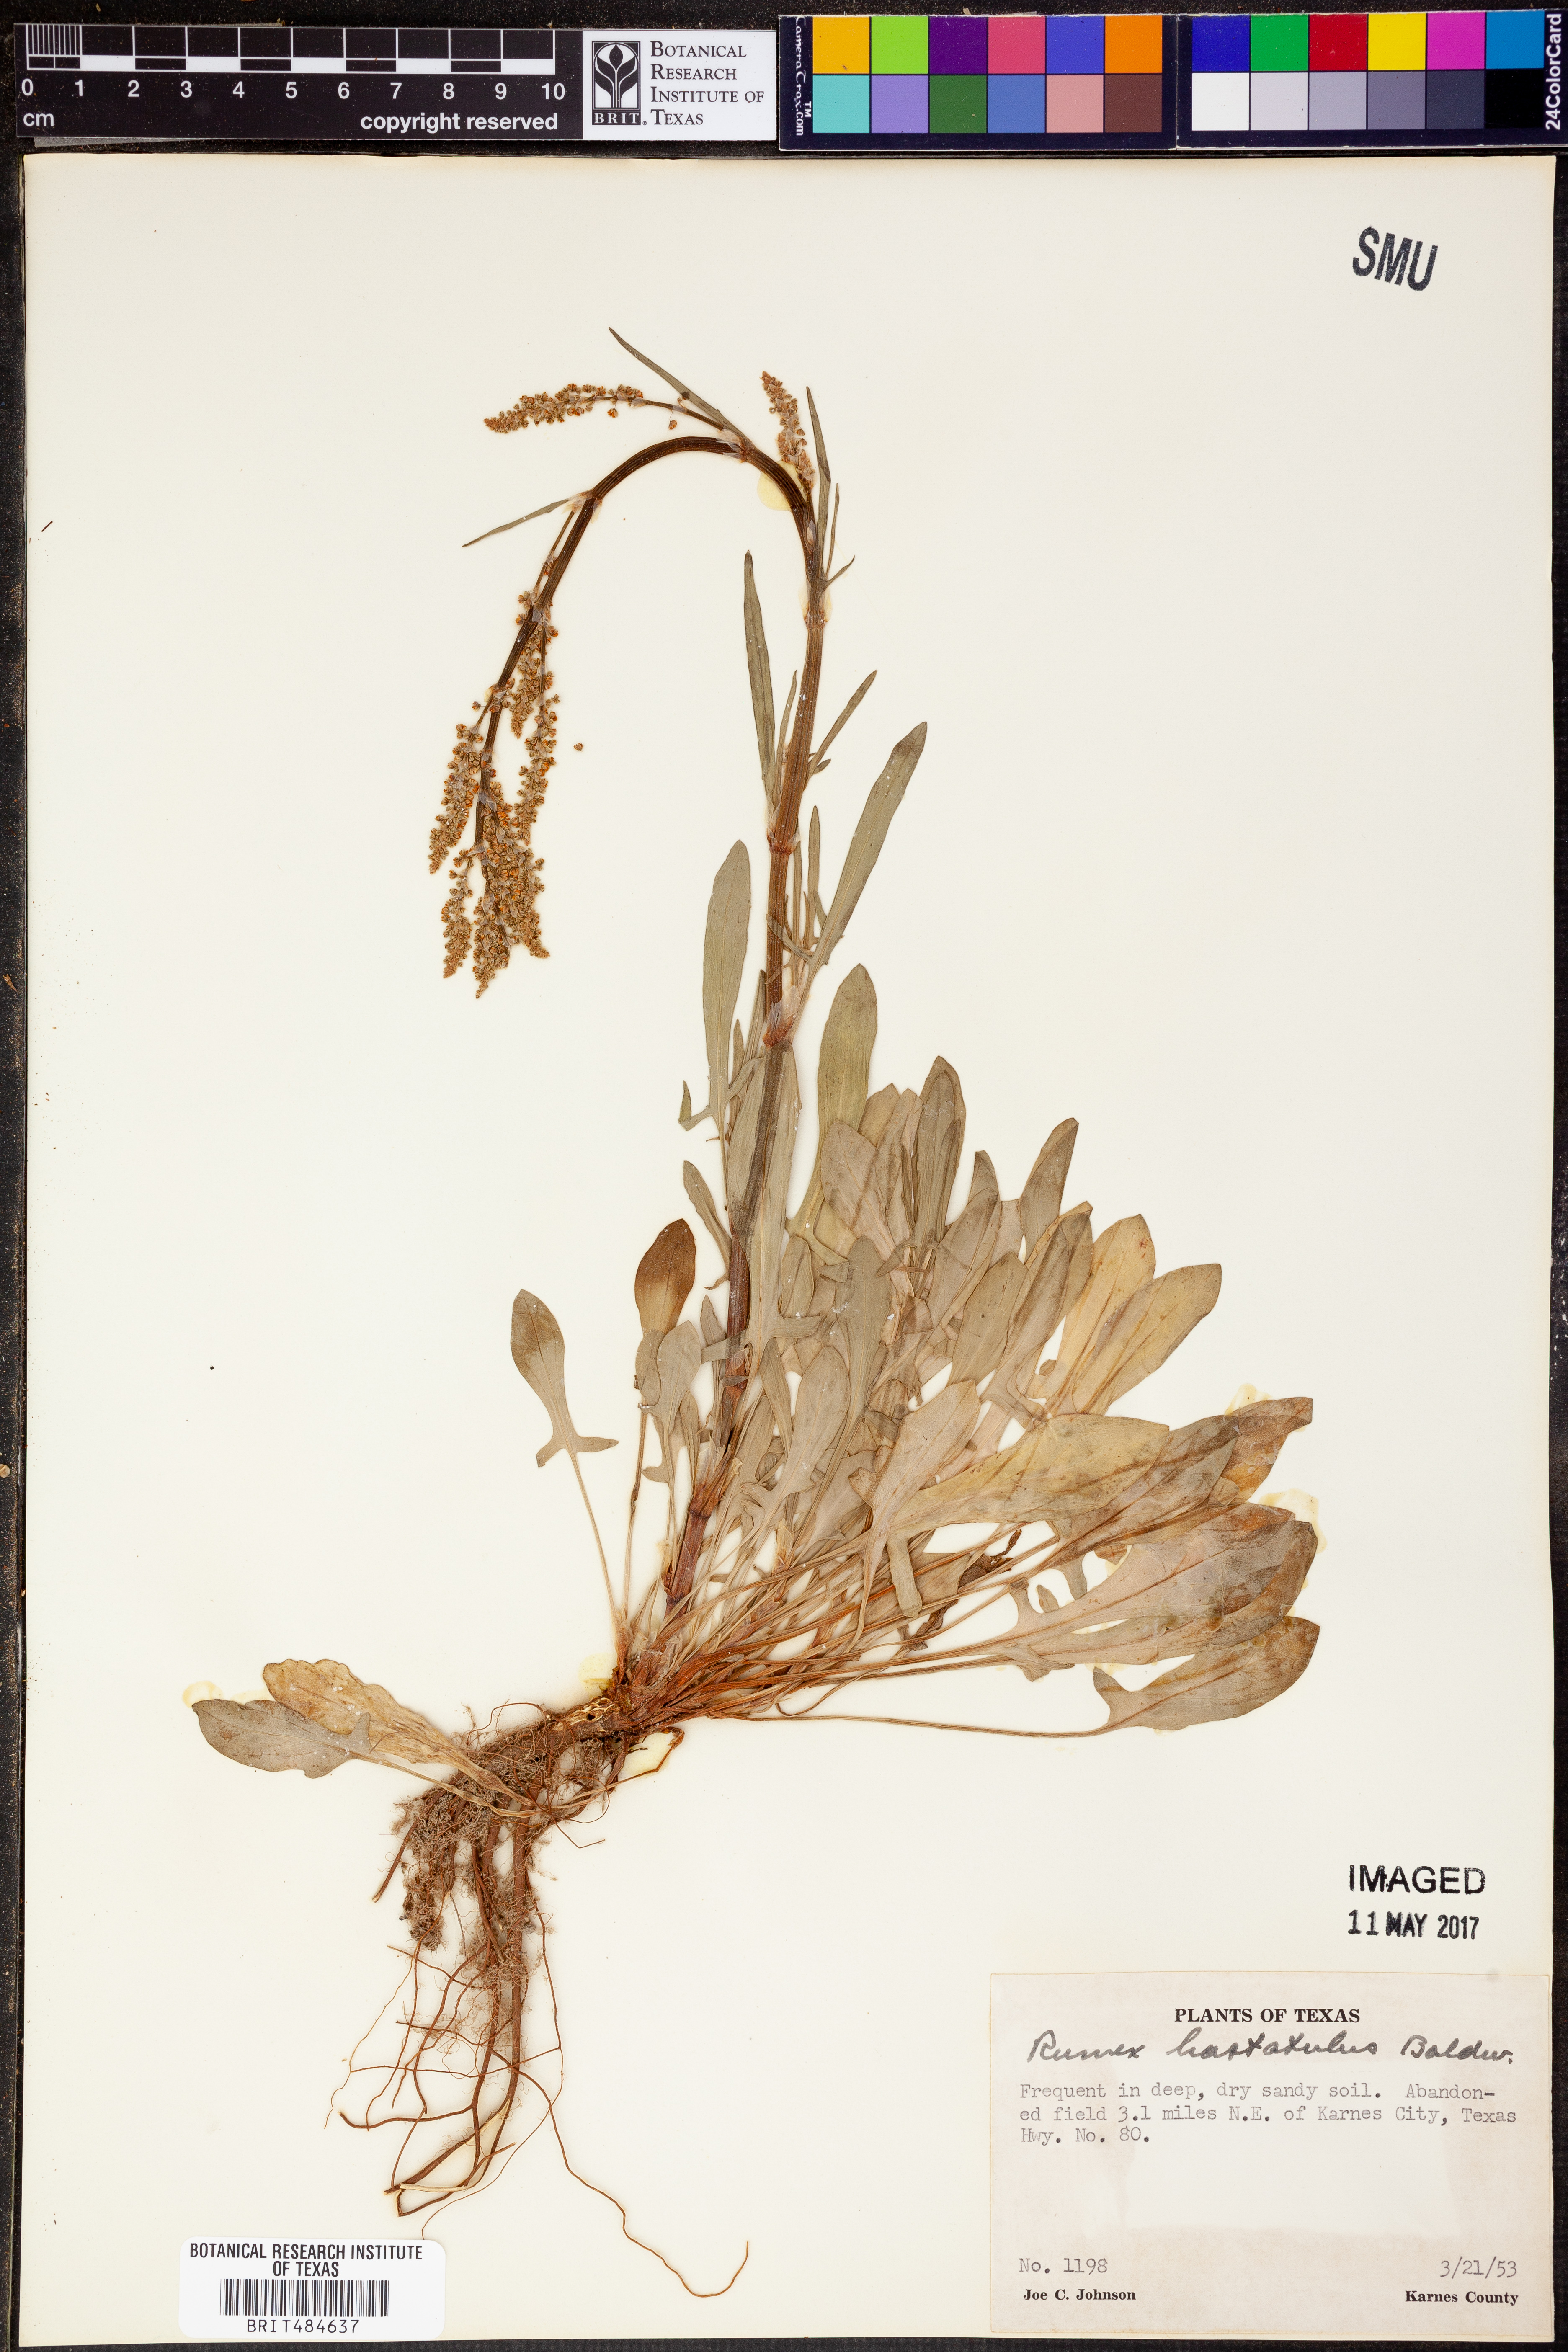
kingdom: Plantae
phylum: Tracheophyta
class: Magnoliopsida
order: Caryophyllales
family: Polygonaceae
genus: Rumex
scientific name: Rumex hastatulus
